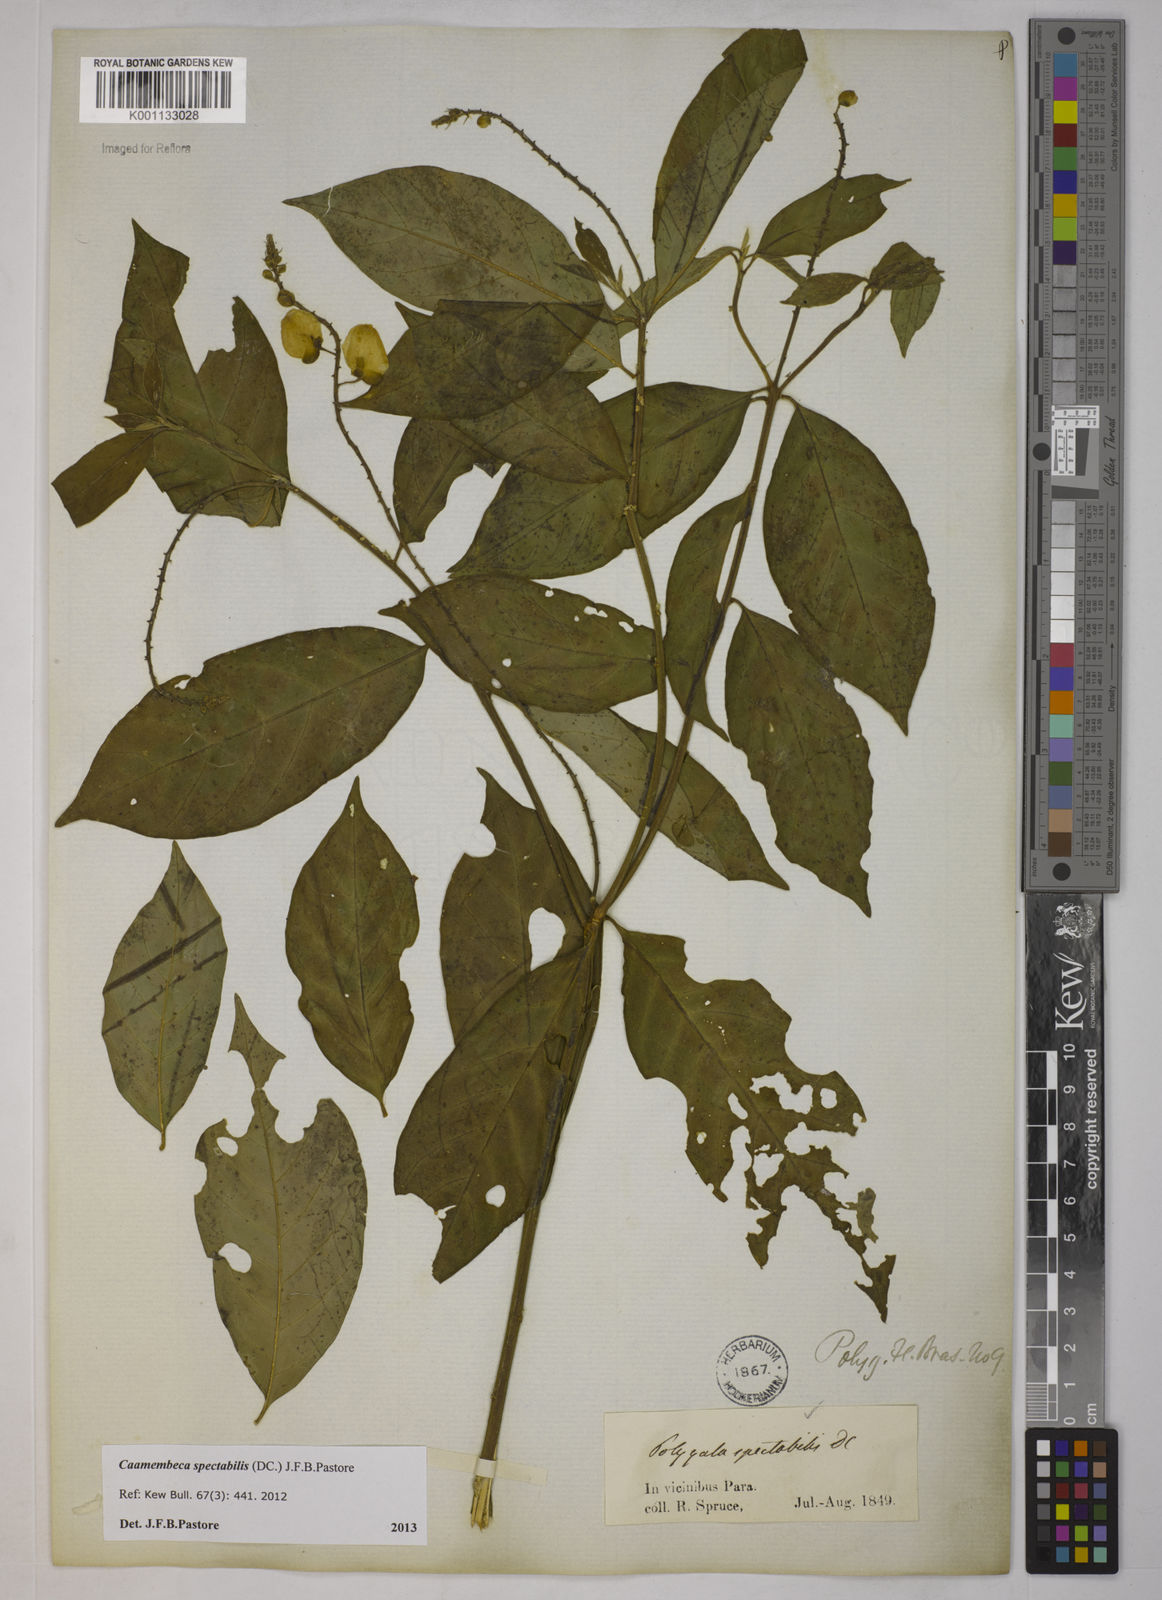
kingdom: Plantae
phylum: Tracheophyta
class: Magnoliopsida
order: Fabales
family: Polygalaceae
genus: Polygala
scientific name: Polygala
